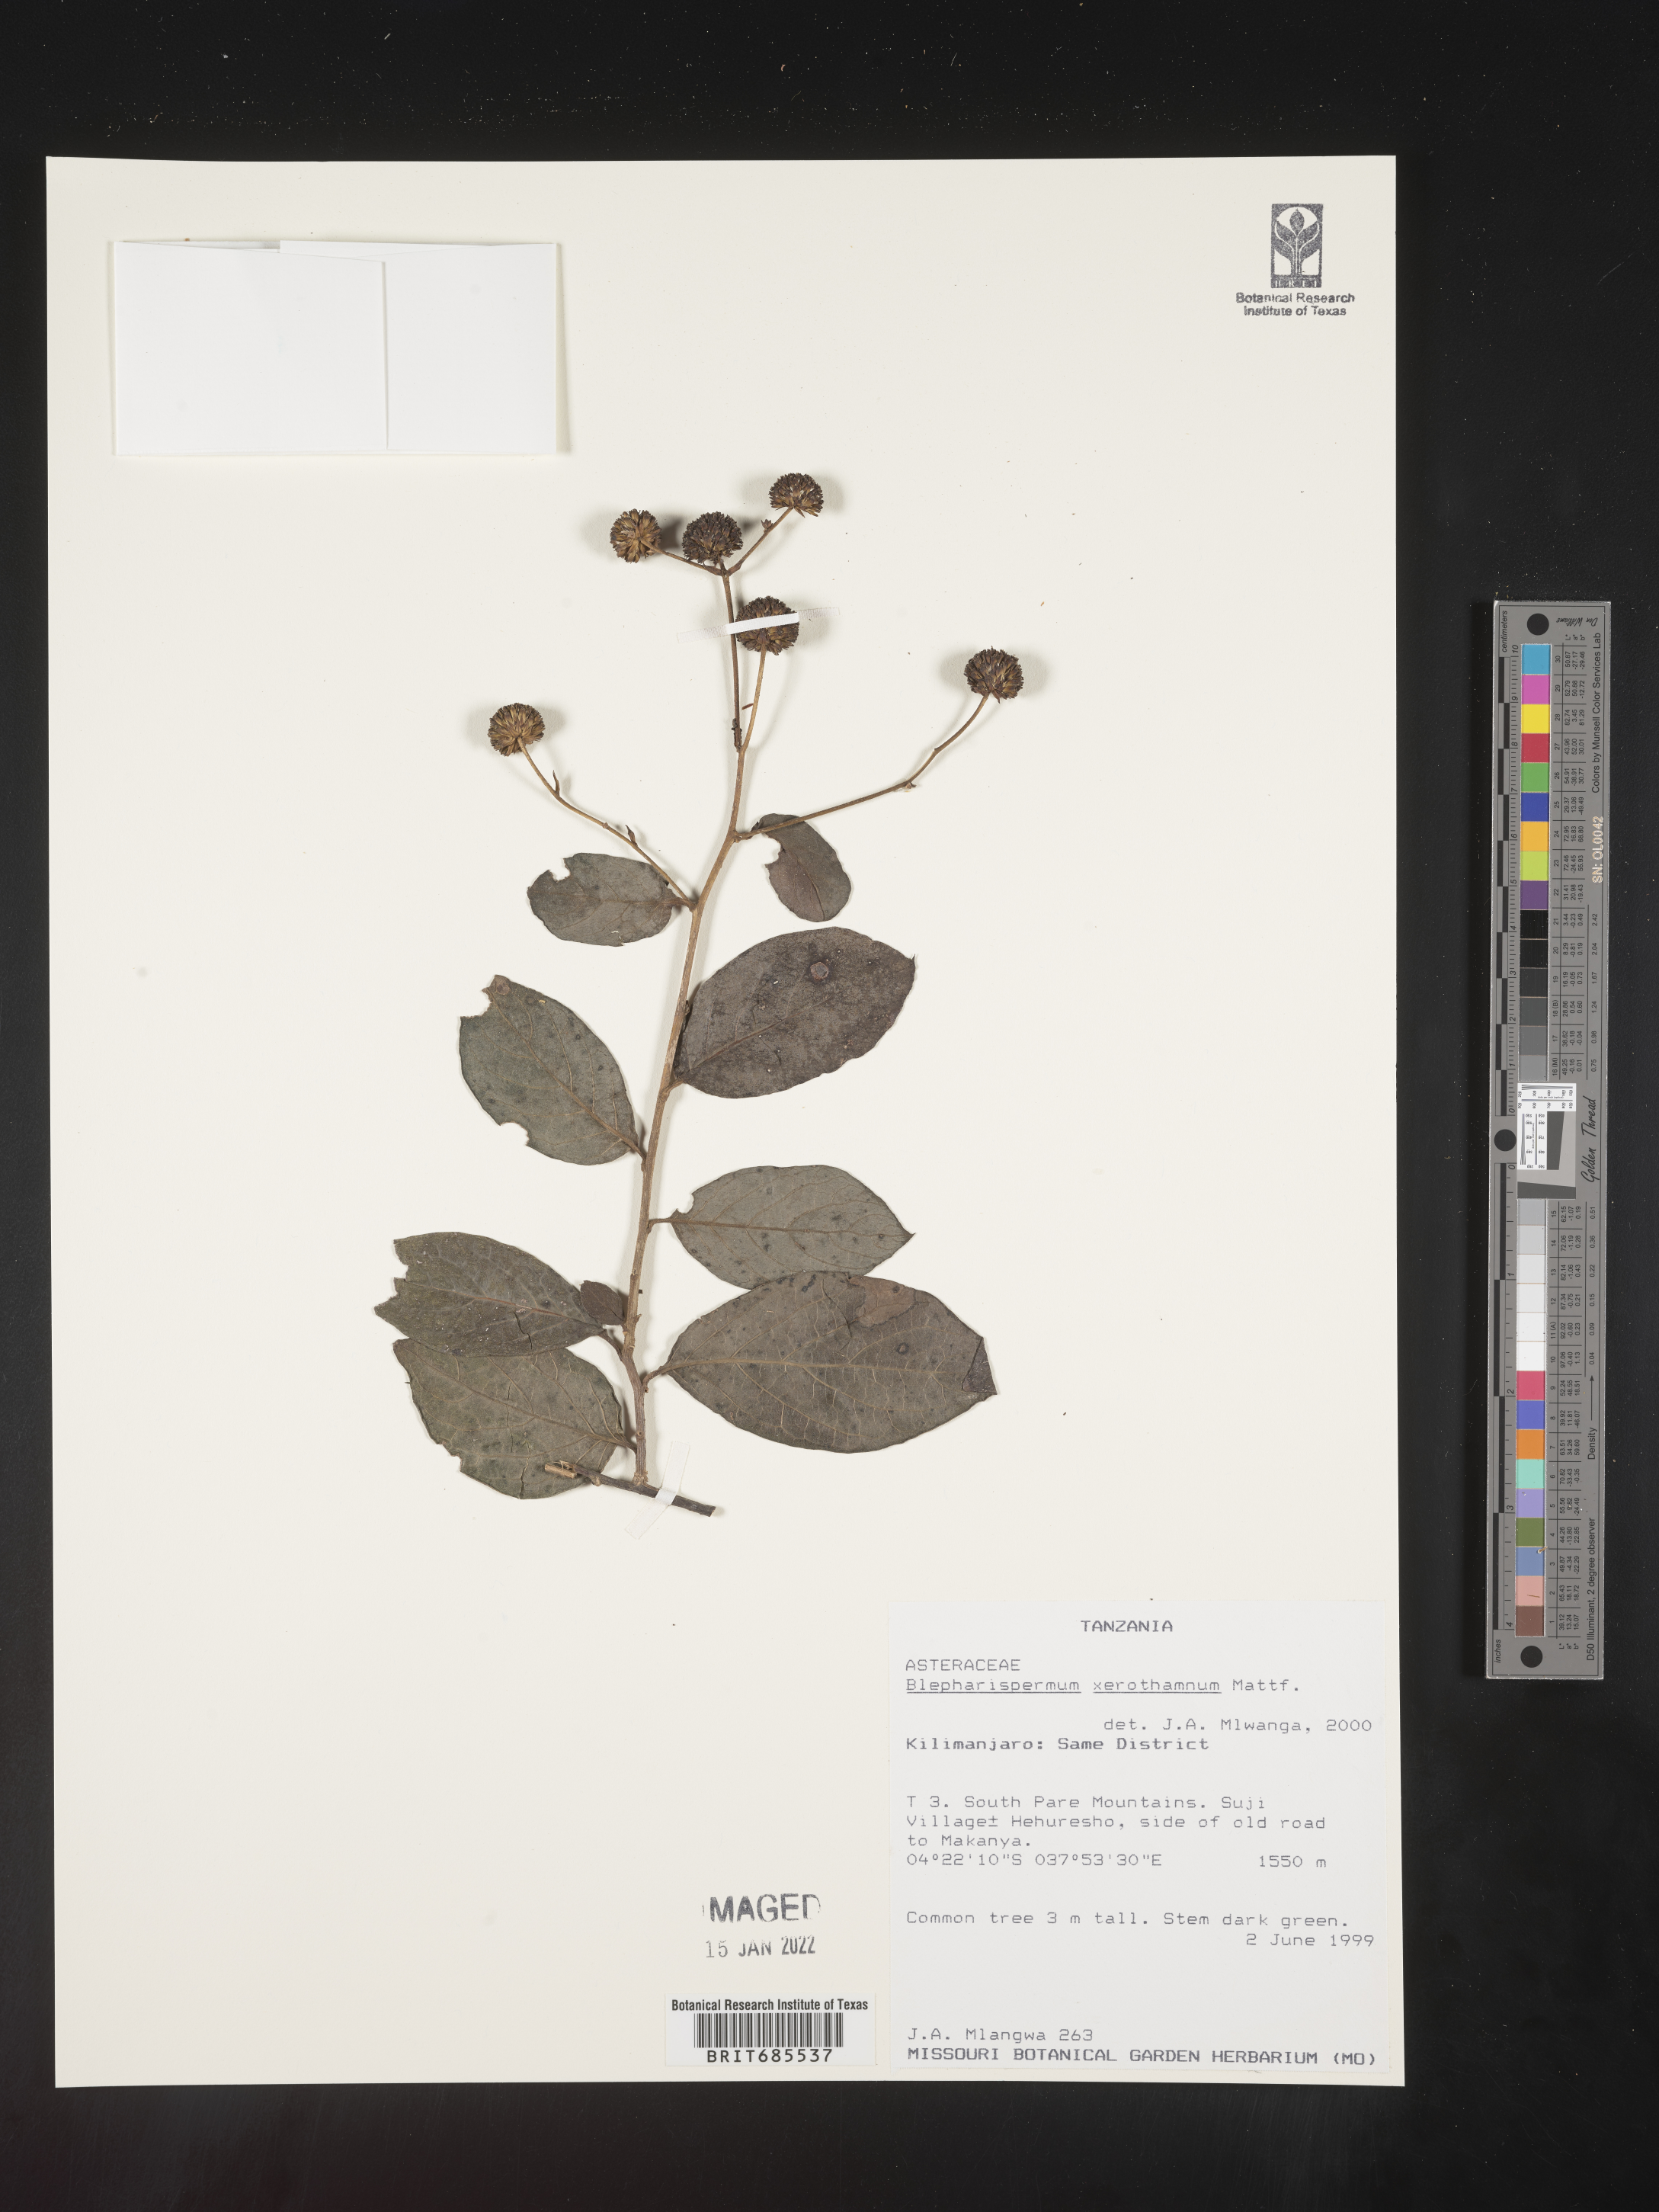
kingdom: Plantae
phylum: Tracheophyta
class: Magnoliopsida
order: Asterales
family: Asteraceae
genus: Blepharispermum
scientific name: Blepharispermum
